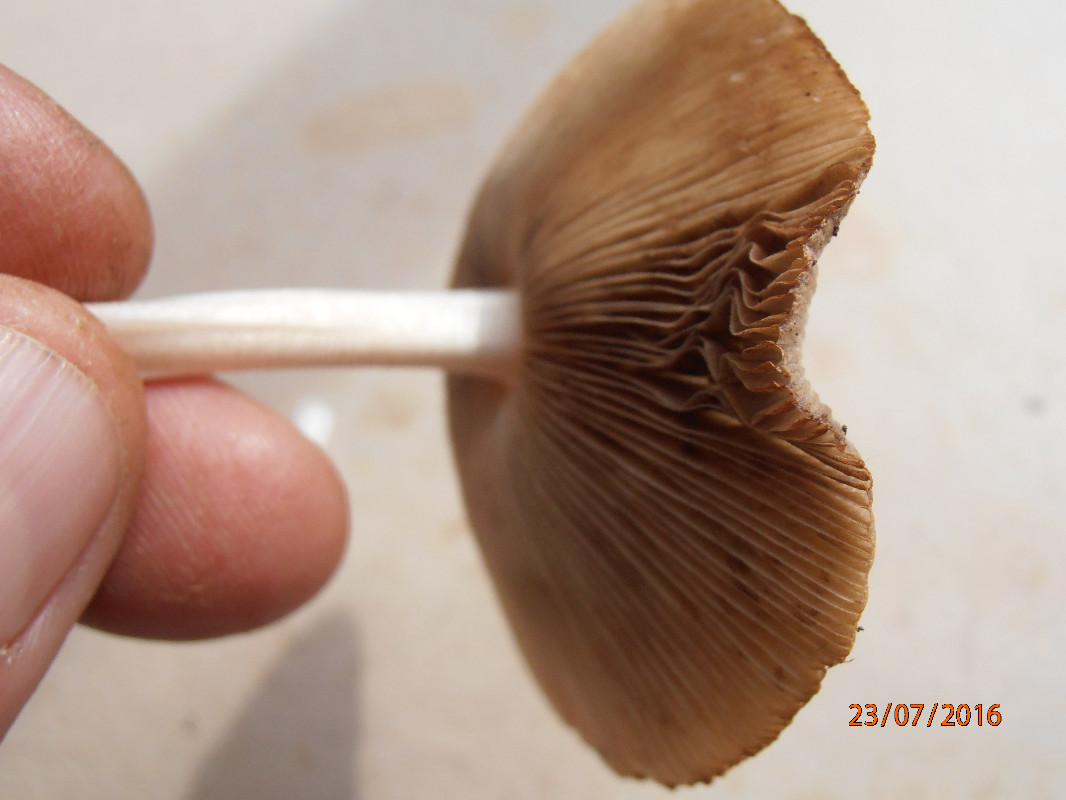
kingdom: Fungi
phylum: Basidiomycota
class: Agaricomycetes
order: Agaricales
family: Bolbitiaceae
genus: Bolbitius
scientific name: Bolbitius coprophilus
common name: rosa gulhat
